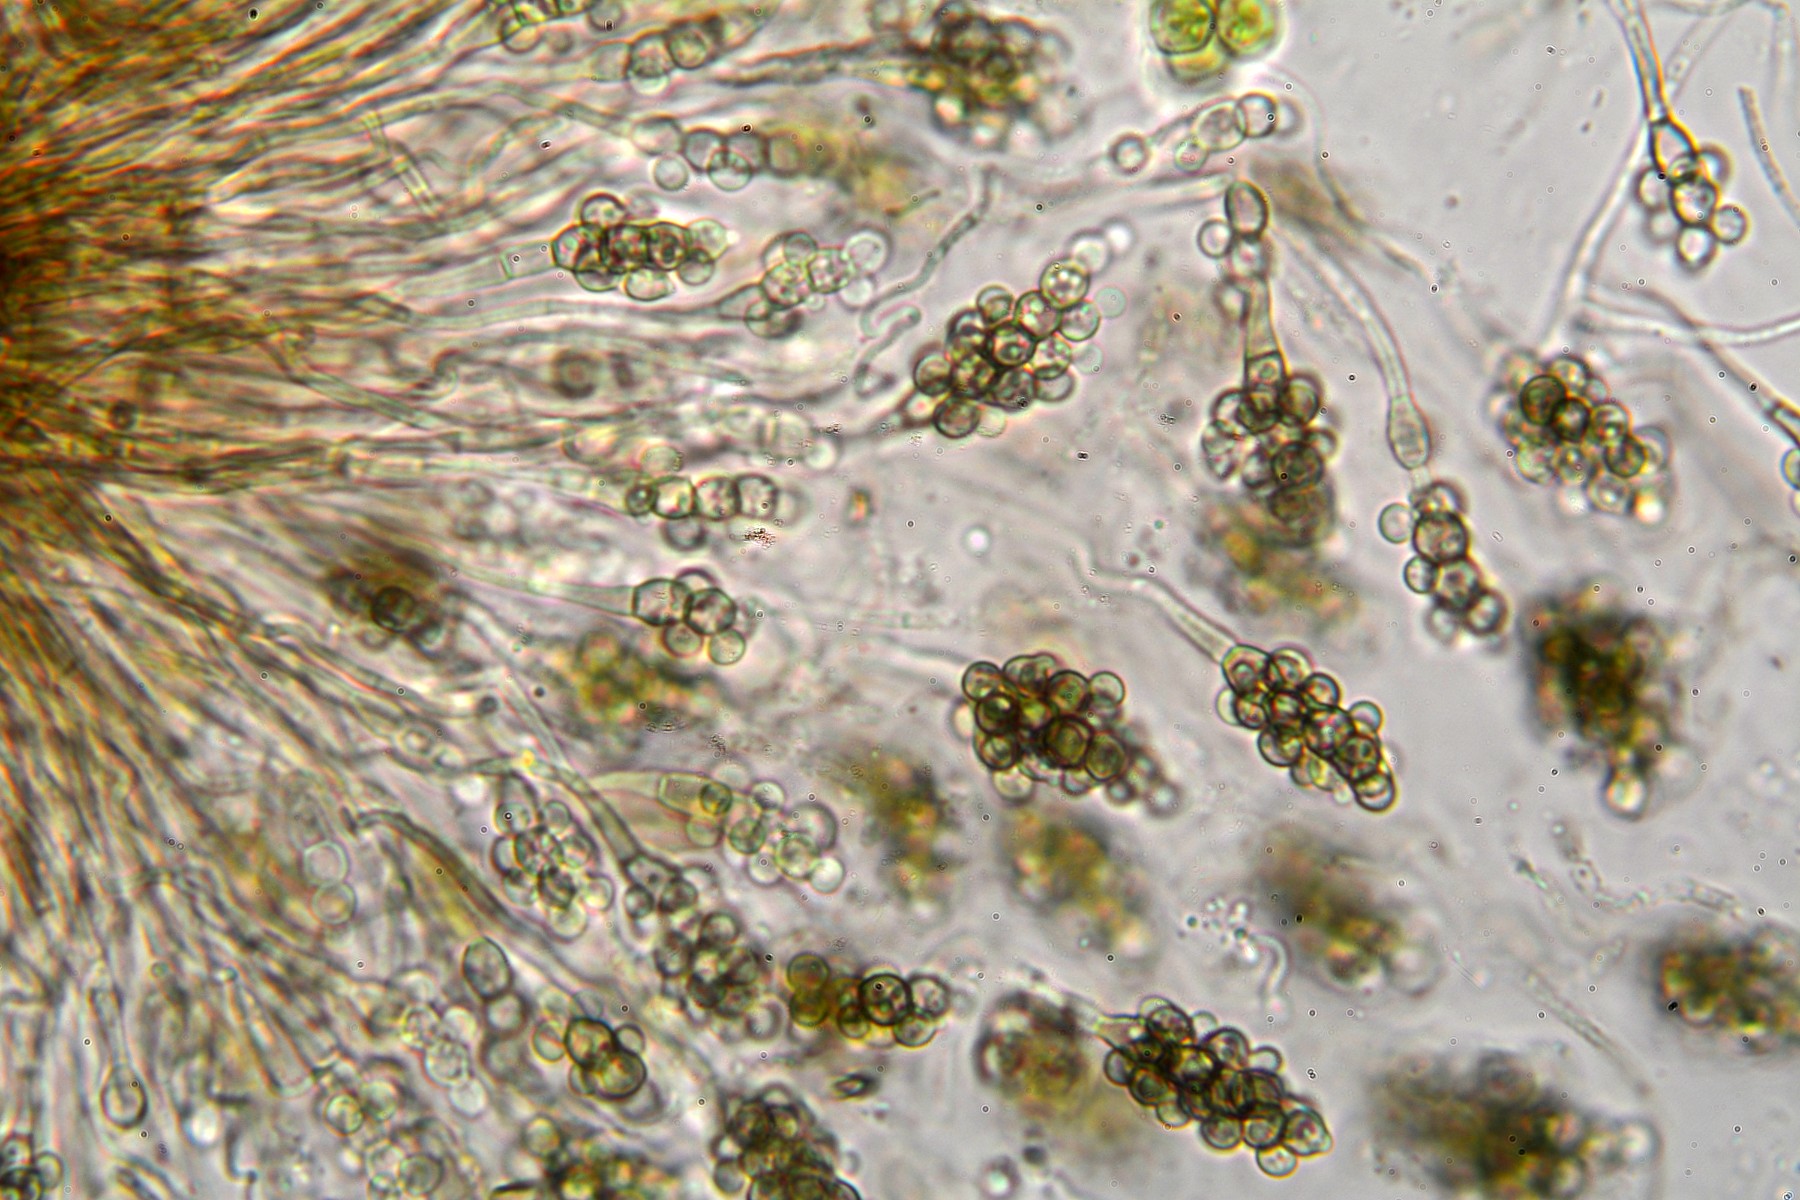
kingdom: Fungi
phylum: Ascomycota
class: Leotiomycetes
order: Helotiales
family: Mollisiaceae
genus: Cheirospora
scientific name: Cheirospora botryospora
